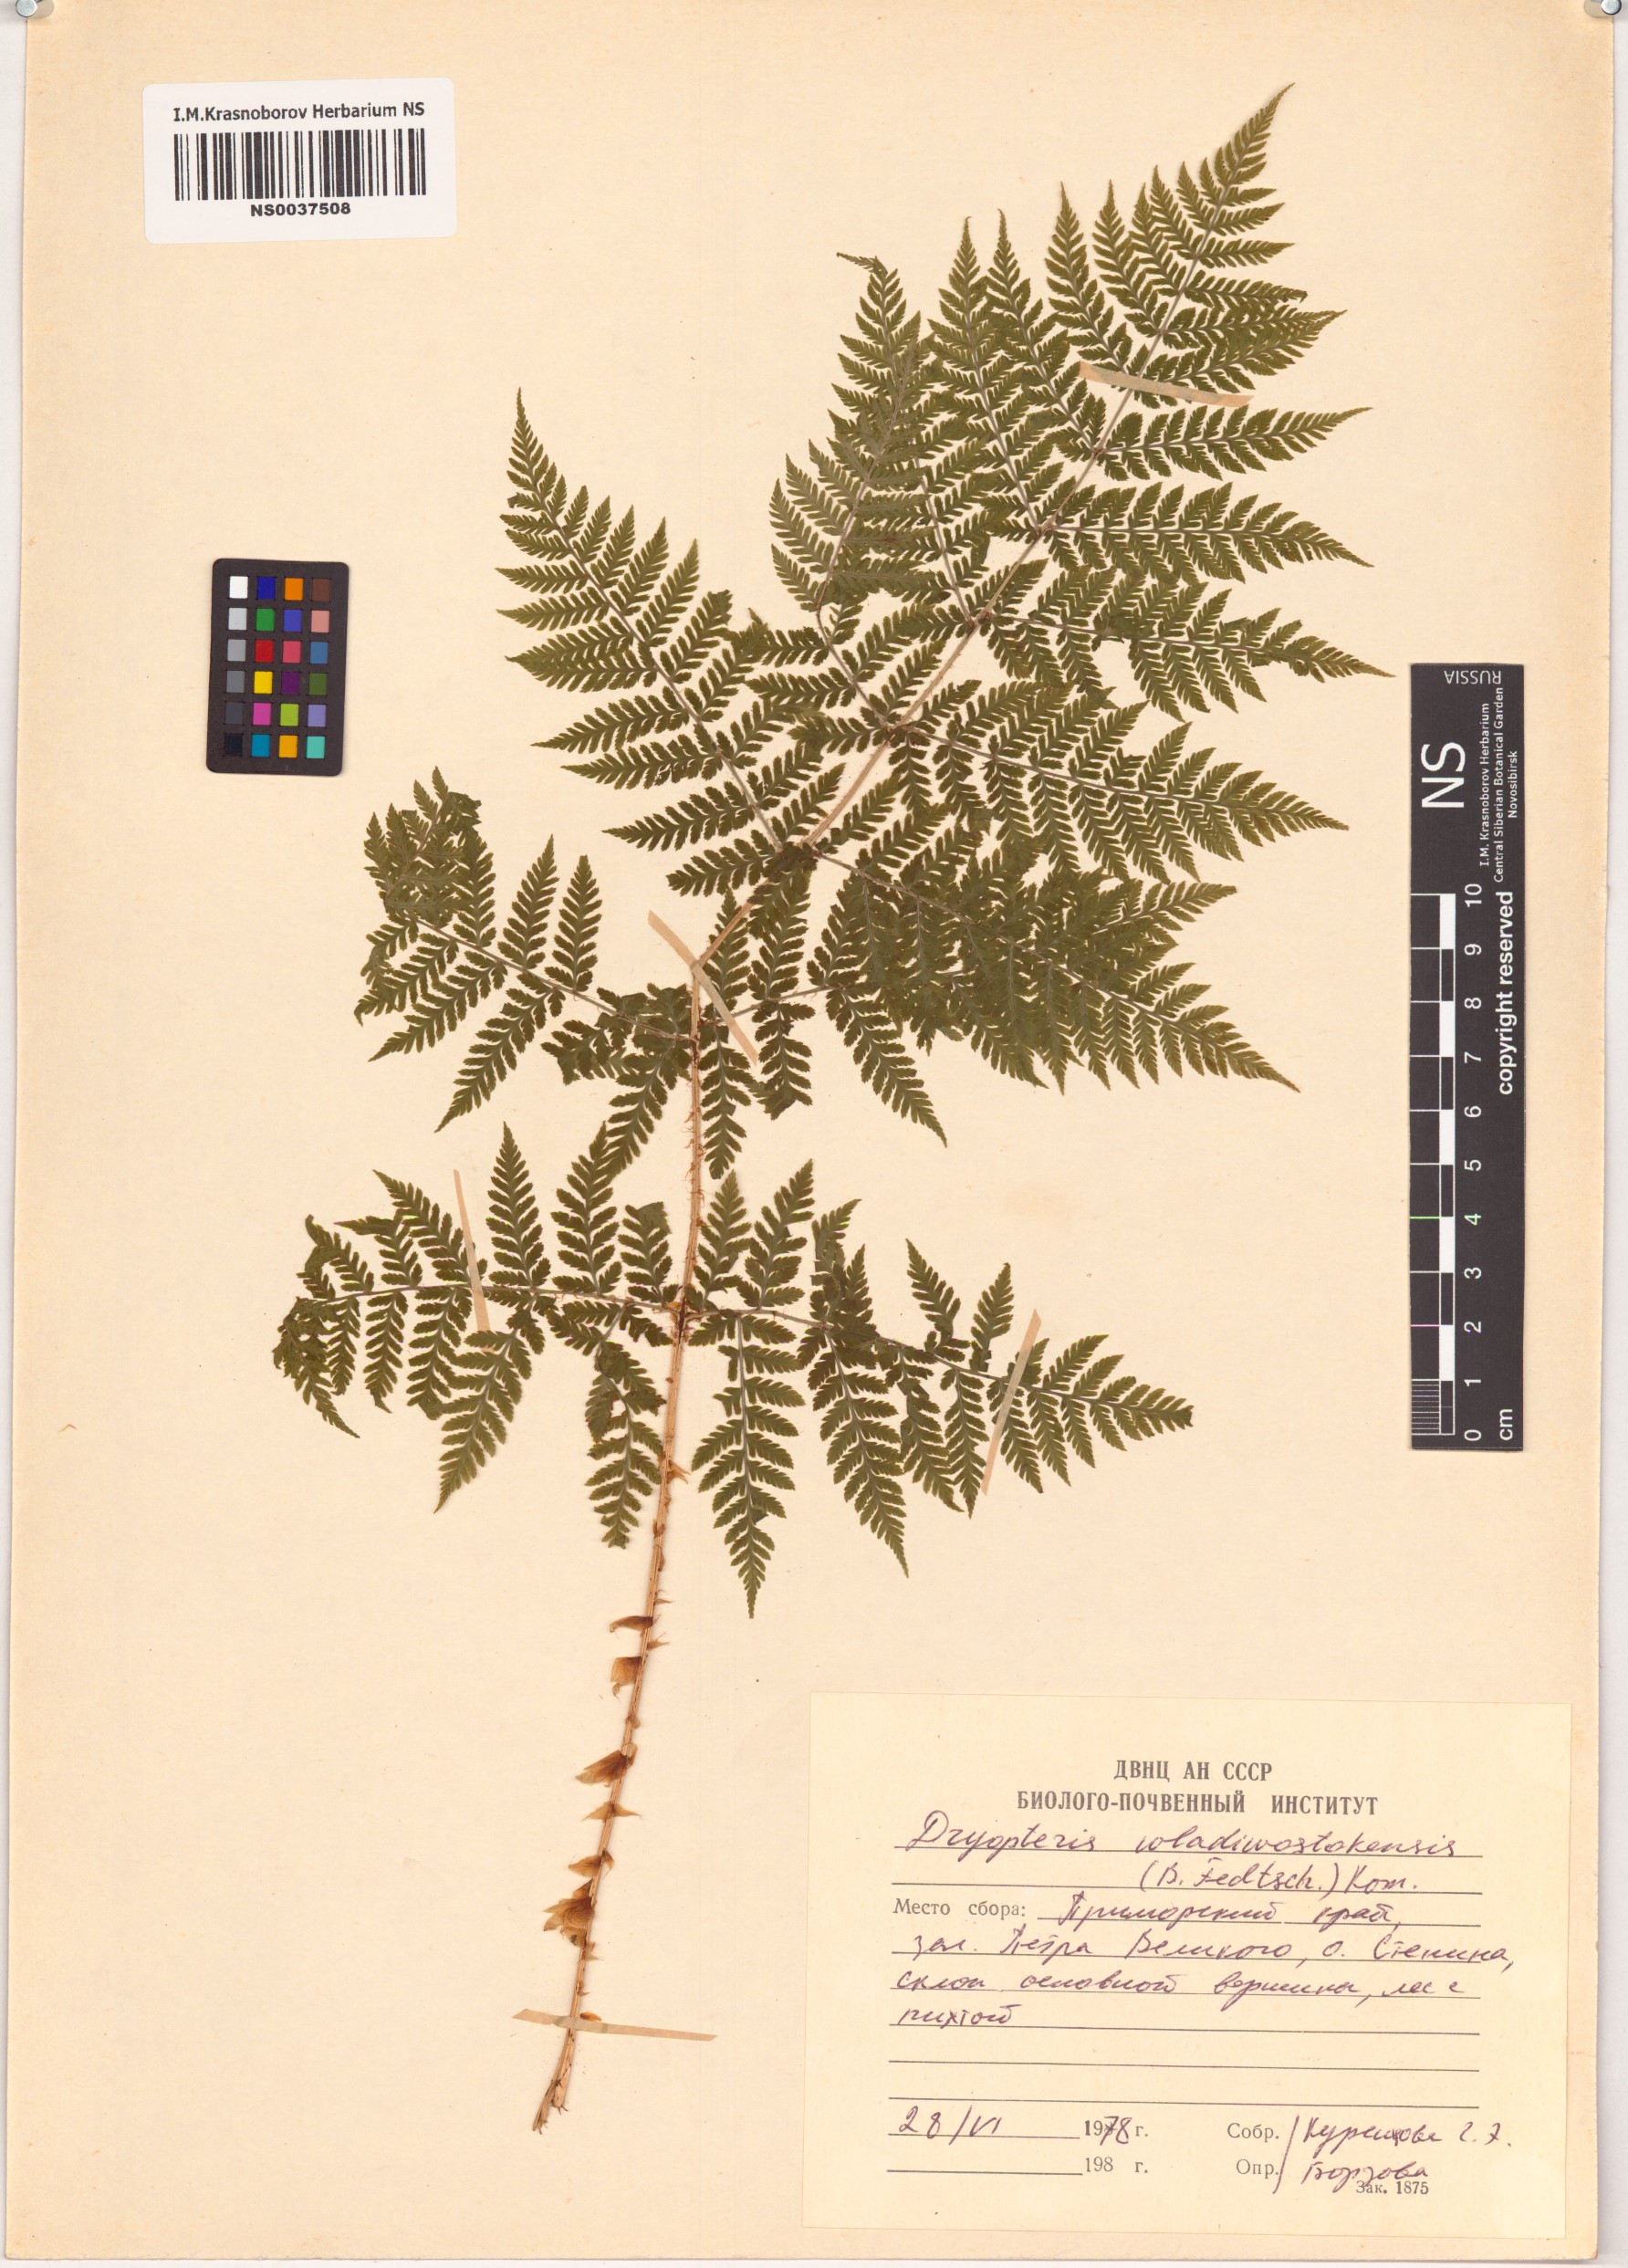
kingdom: Plantae
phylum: Tracheophyta
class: Polypodiopsida
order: Polypodiales
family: Dryopteridaceae
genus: Dryopteris
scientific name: Dryopteris laeta
